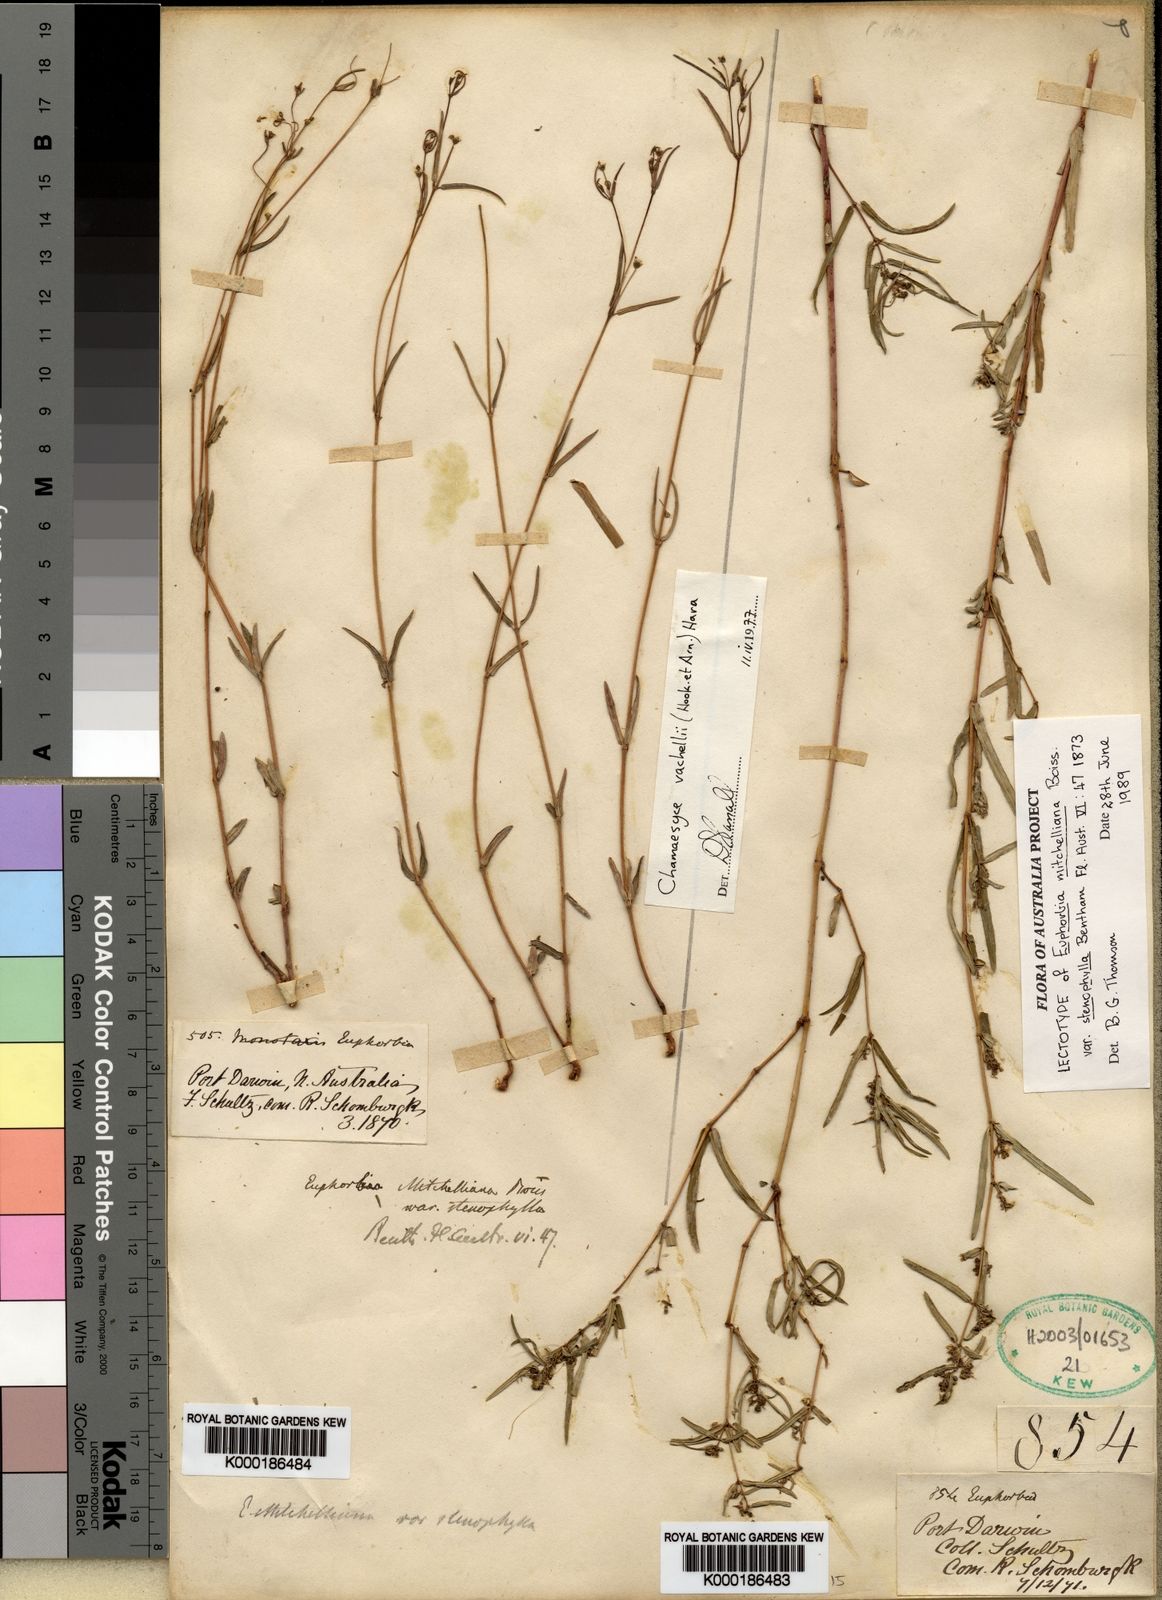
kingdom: Plantae
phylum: Tracheophyta
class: Magnoliopsida
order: Malpighiales
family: Euphorbiaceae
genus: Euphorbia
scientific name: Euphorbia bifida
